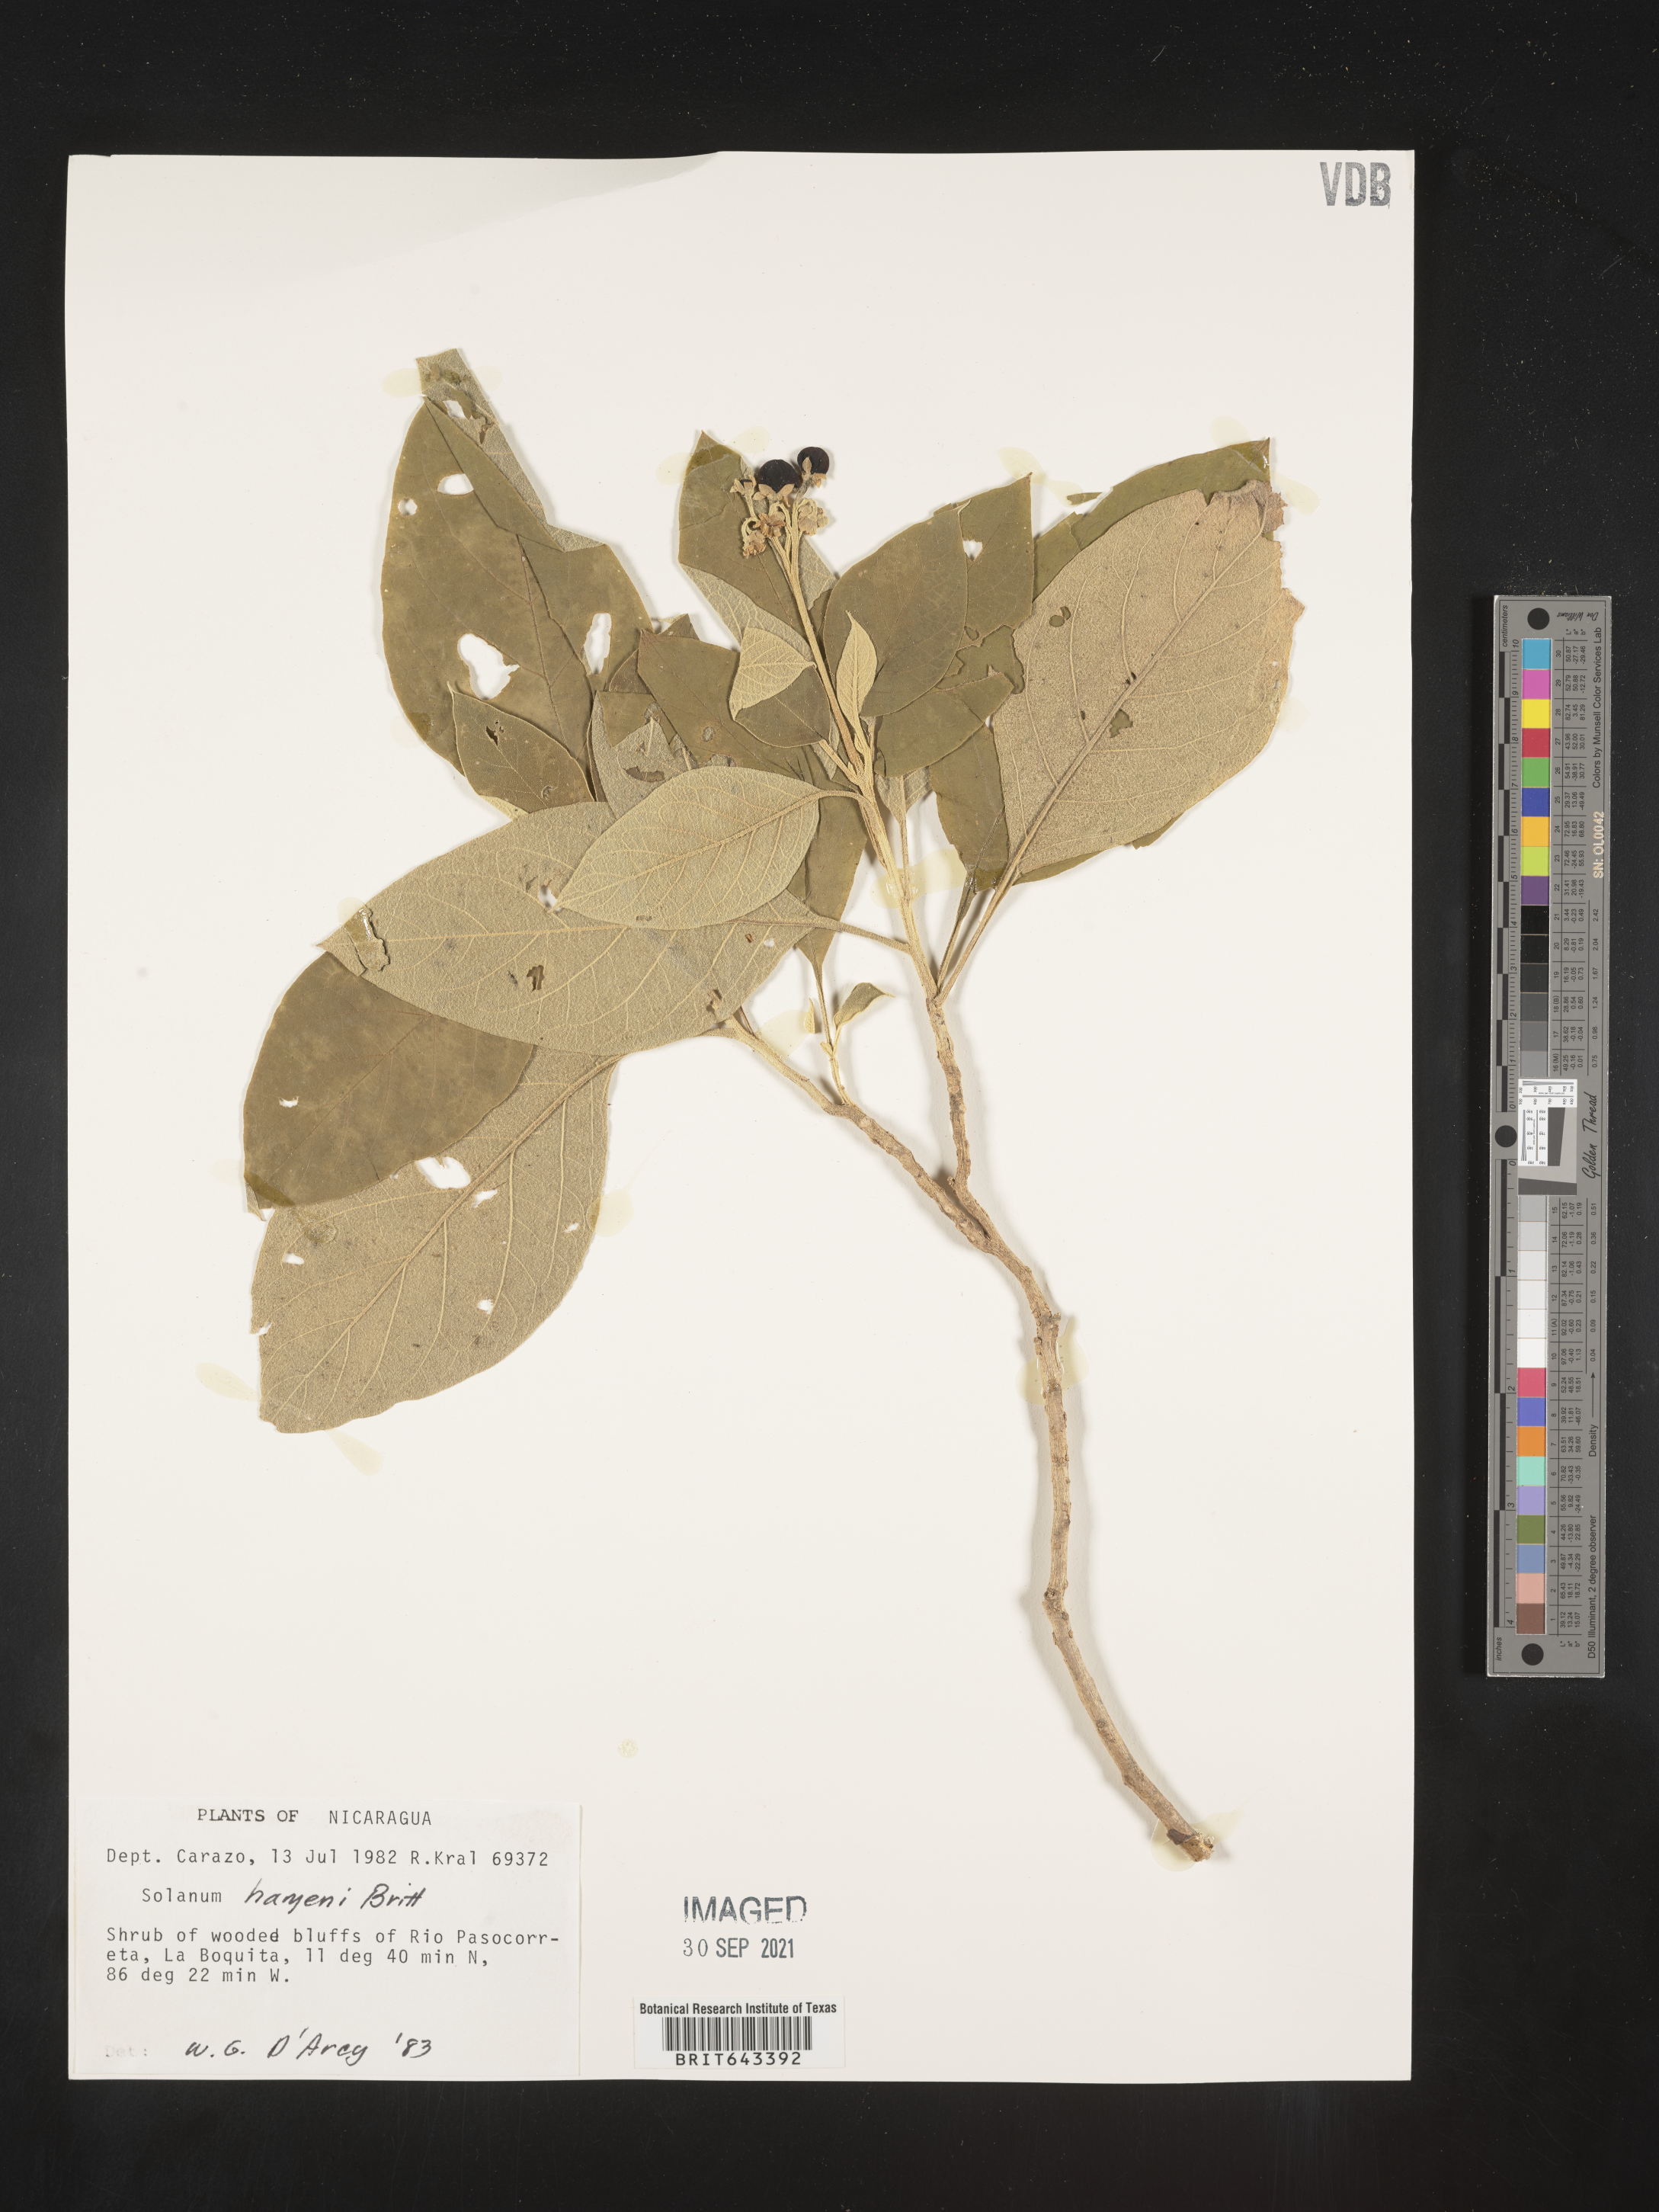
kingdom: Plantae
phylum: Tracheophyta
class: Magnoliopsida
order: Solanales
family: Solanaceae
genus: Solanum
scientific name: Solanum
